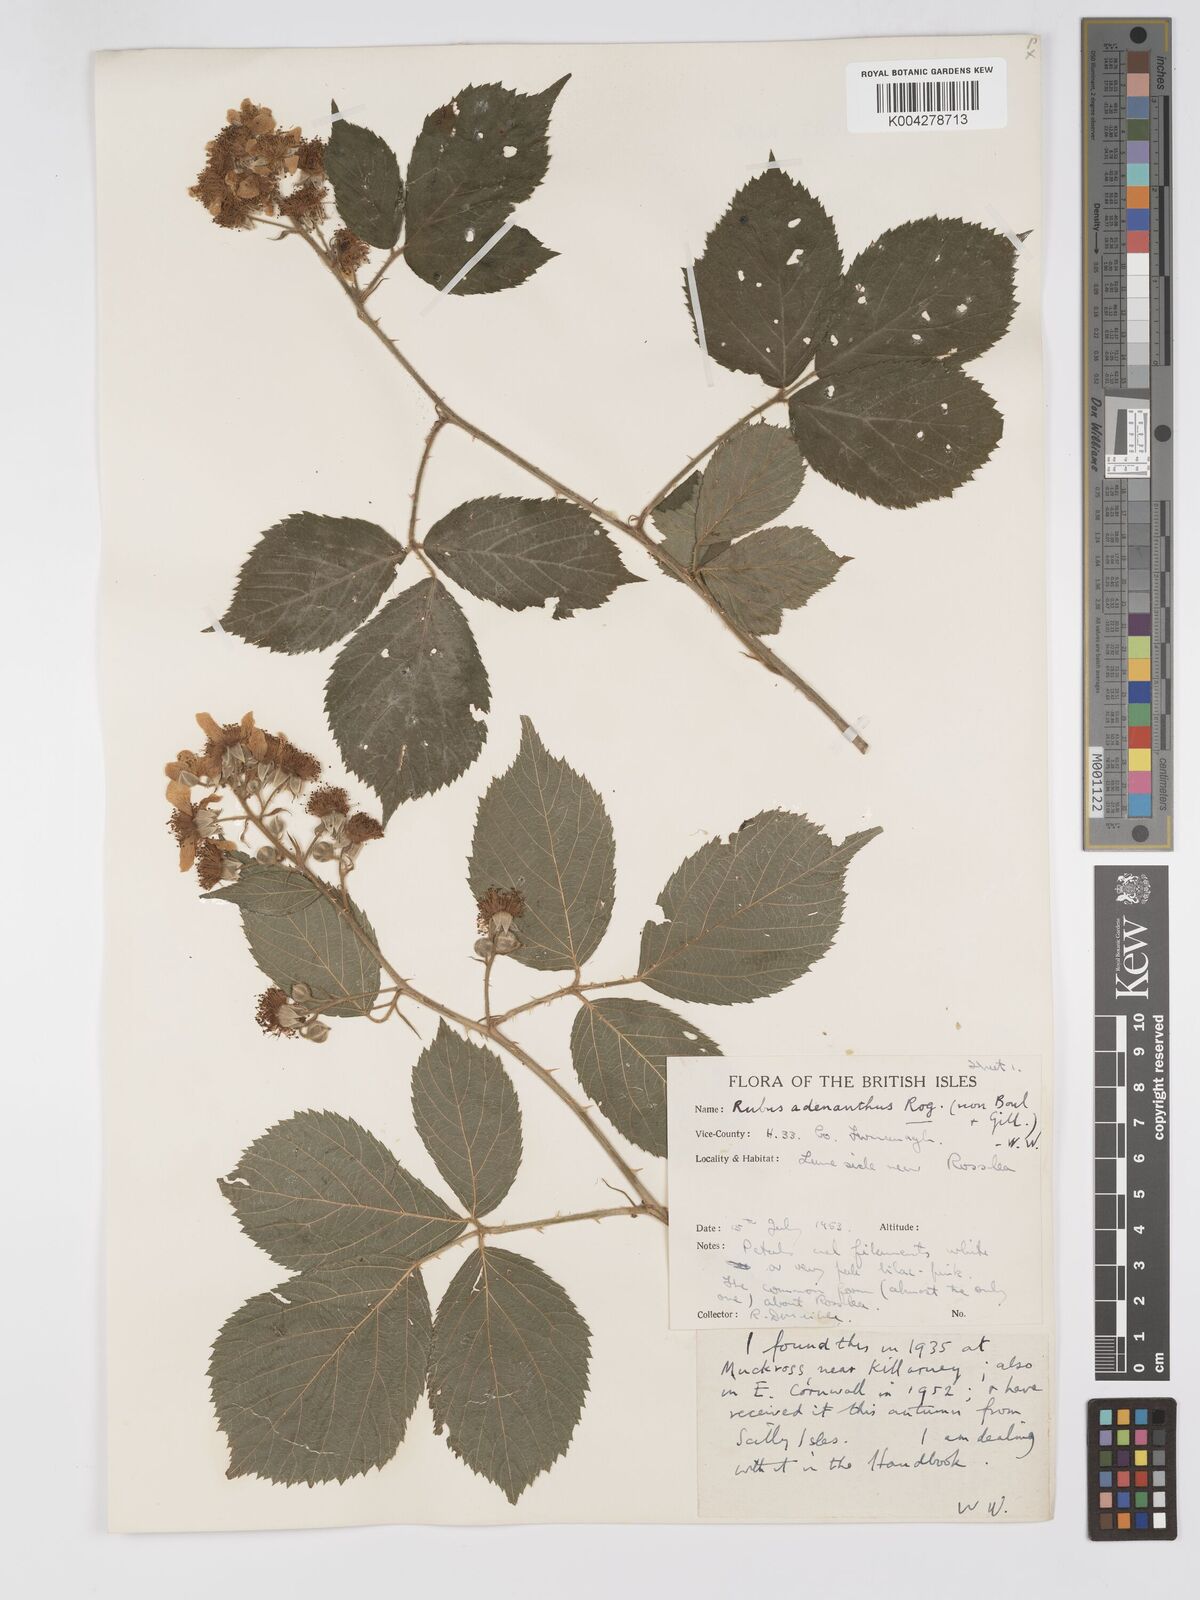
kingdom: Plantae
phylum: Tracheophyta
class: Magnoliopsida
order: Rosales
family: Rosaceae
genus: Rubus
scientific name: Rubus swinhoei
